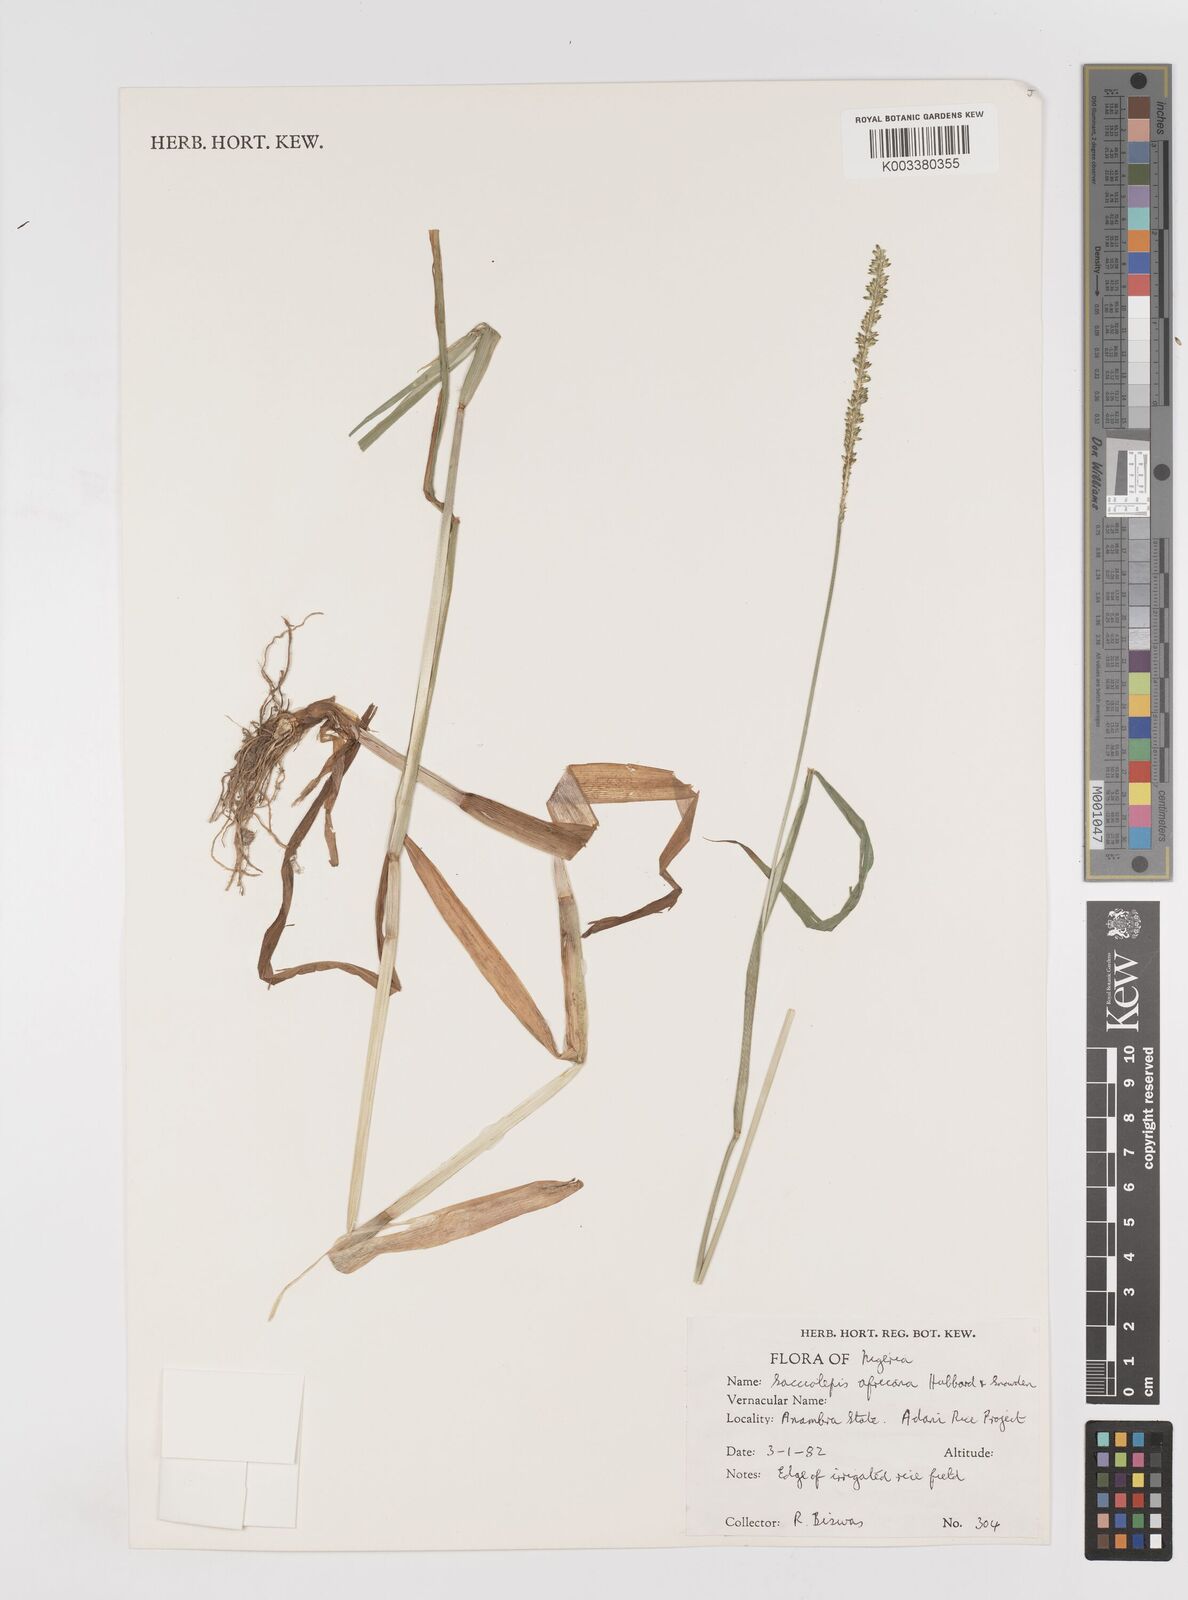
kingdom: Plantae
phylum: Tracheophyta
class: Liliopsida
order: Poales
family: Poaceae
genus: Sacciolepis
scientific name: Sacciolepis africana
